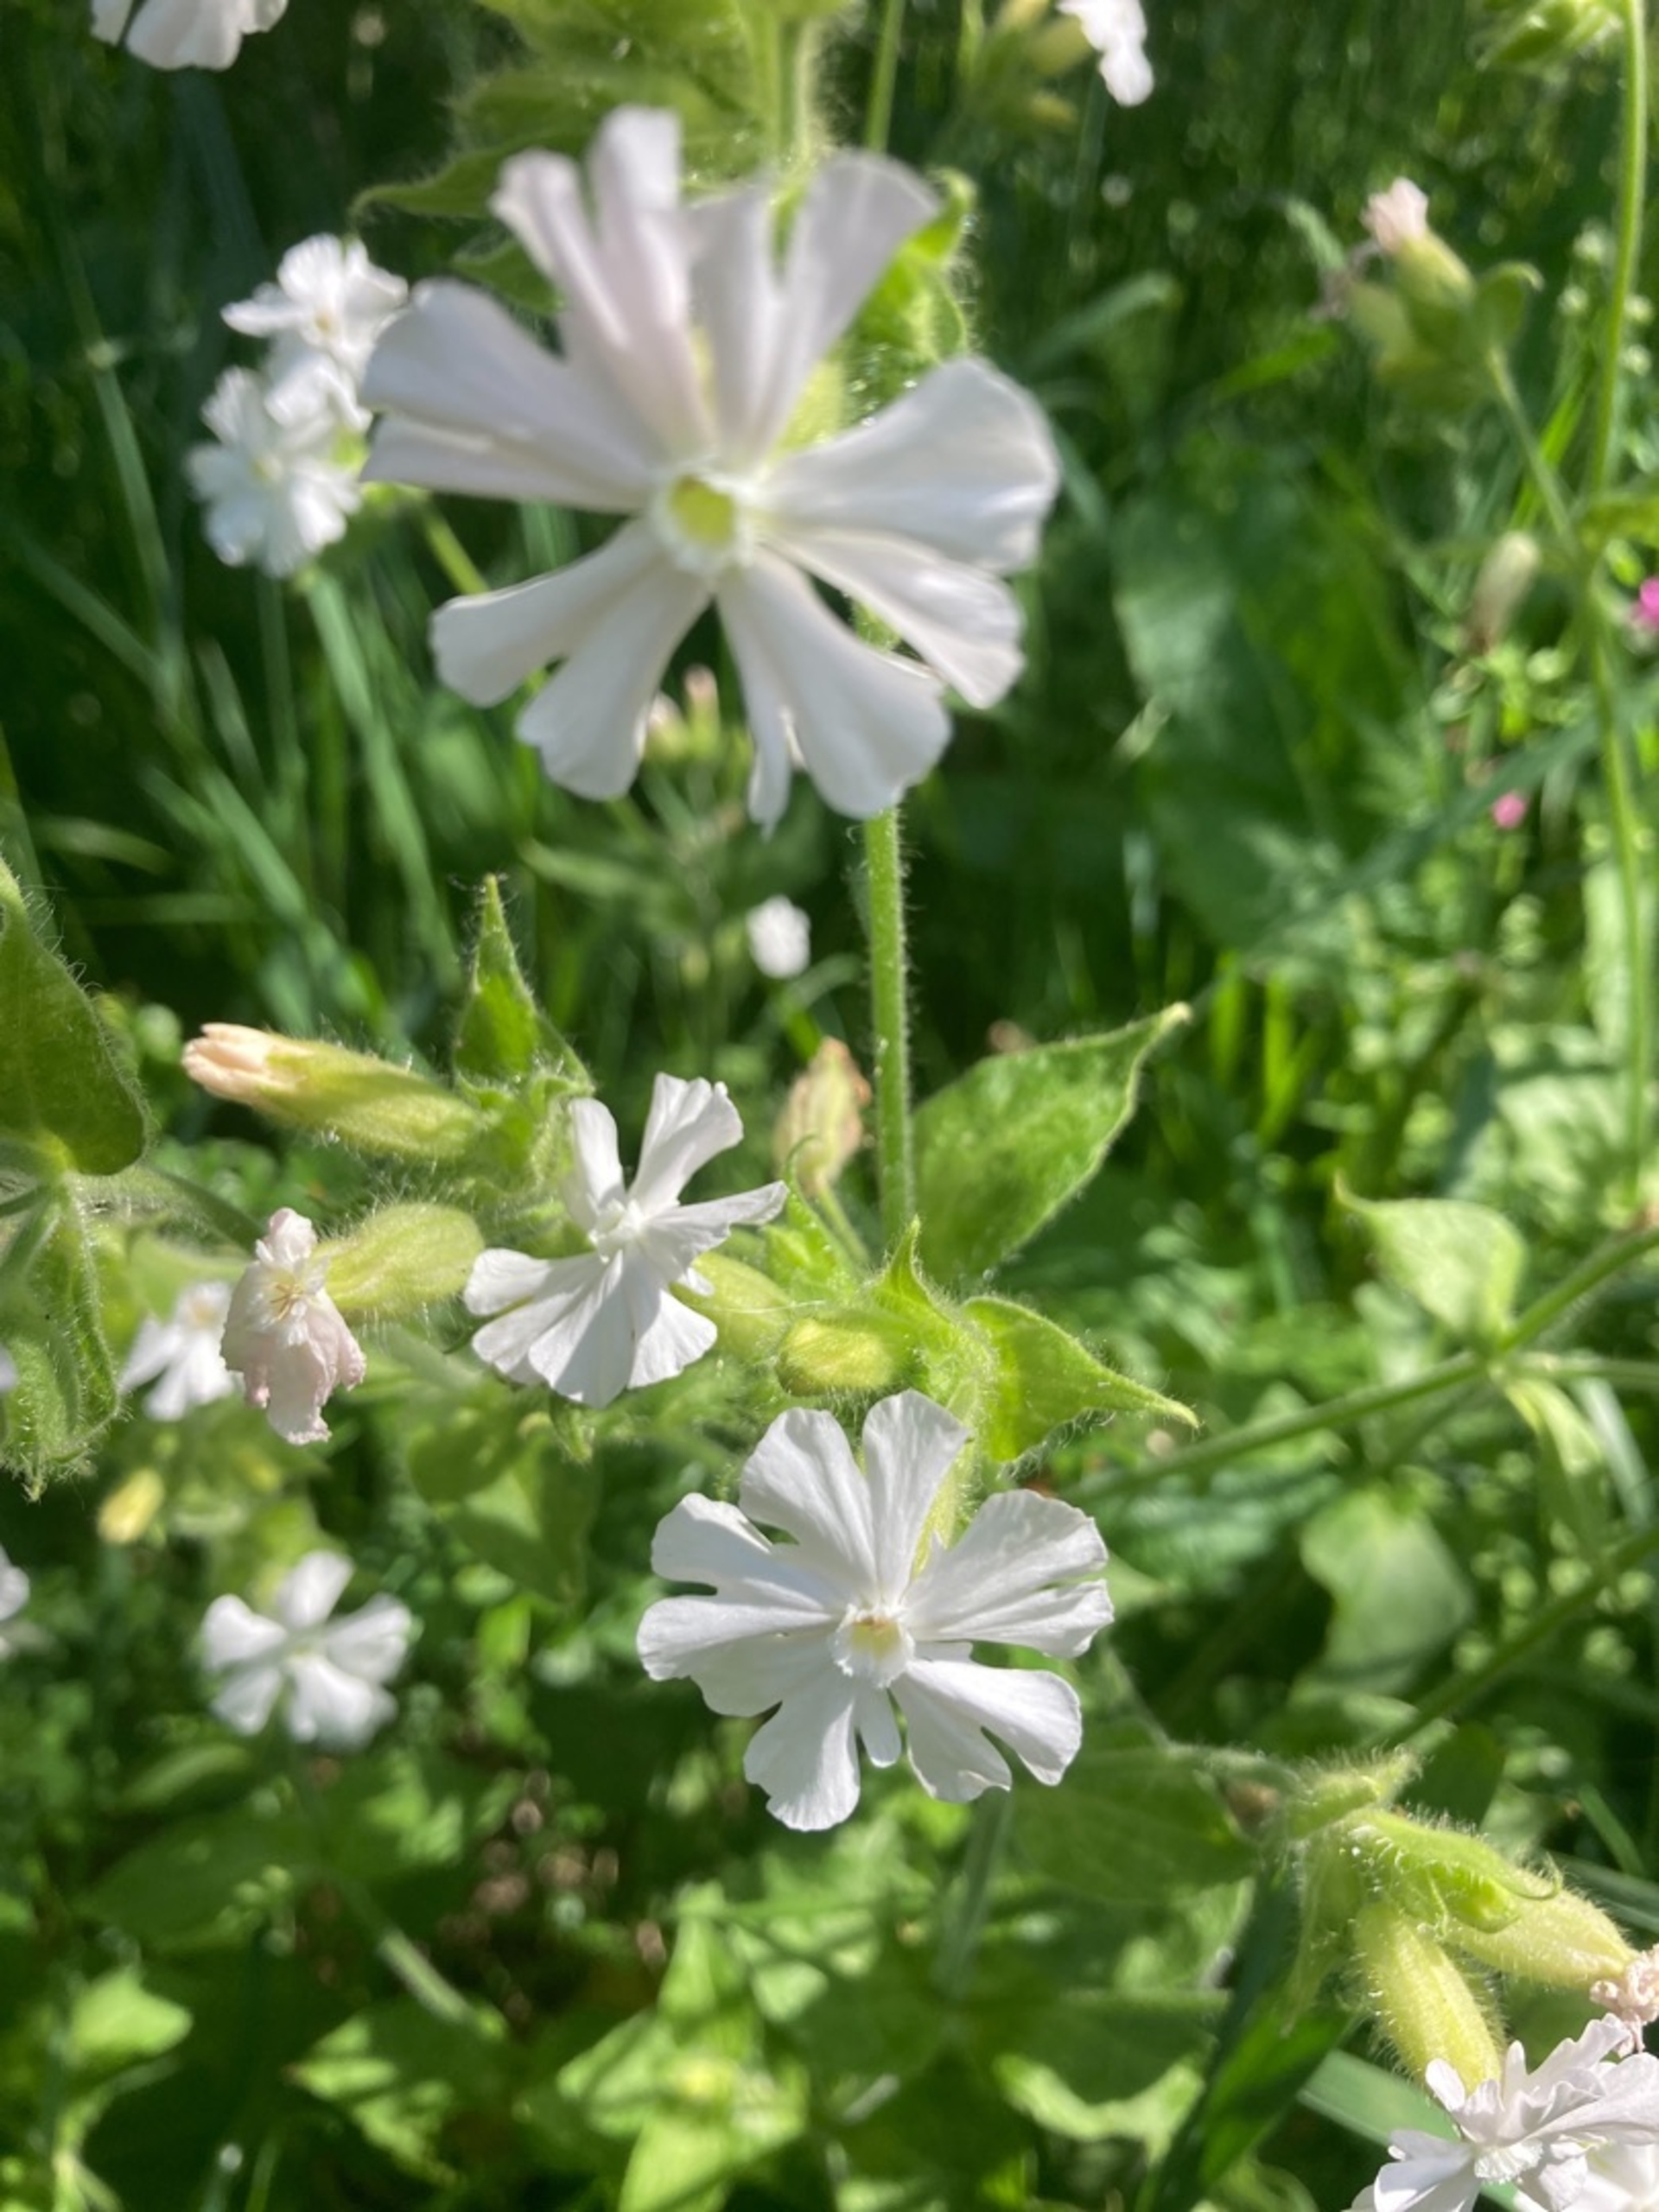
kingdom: Plantae
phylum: Tracheophyta
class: Magnoliopsida
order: Caryophyllales
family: Caryophyllaceae
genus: Silene
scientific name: Silene latifolia
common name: Aftenpragtstjerne
